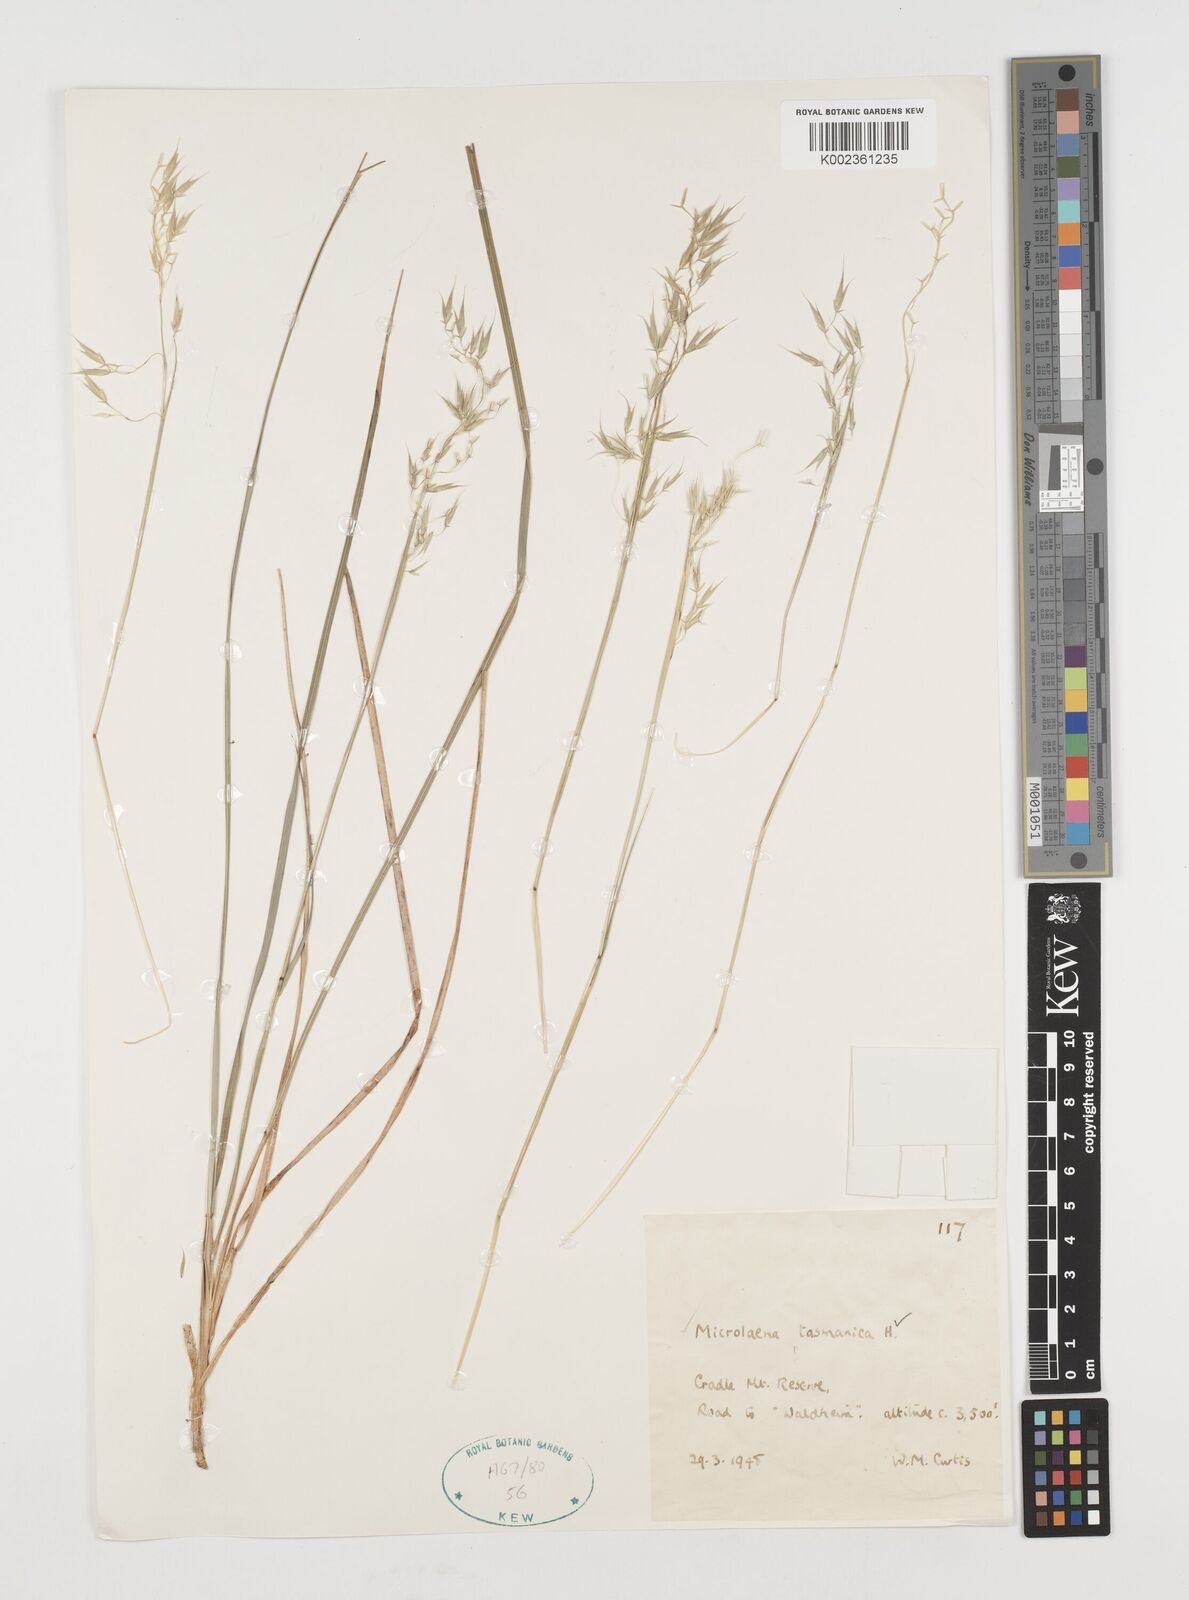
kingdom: Plantae
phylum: Tracheophyta
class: Liliopsida
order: Poales
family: Poaceae
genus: Microlaena
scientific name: Microlaena tasmanica
